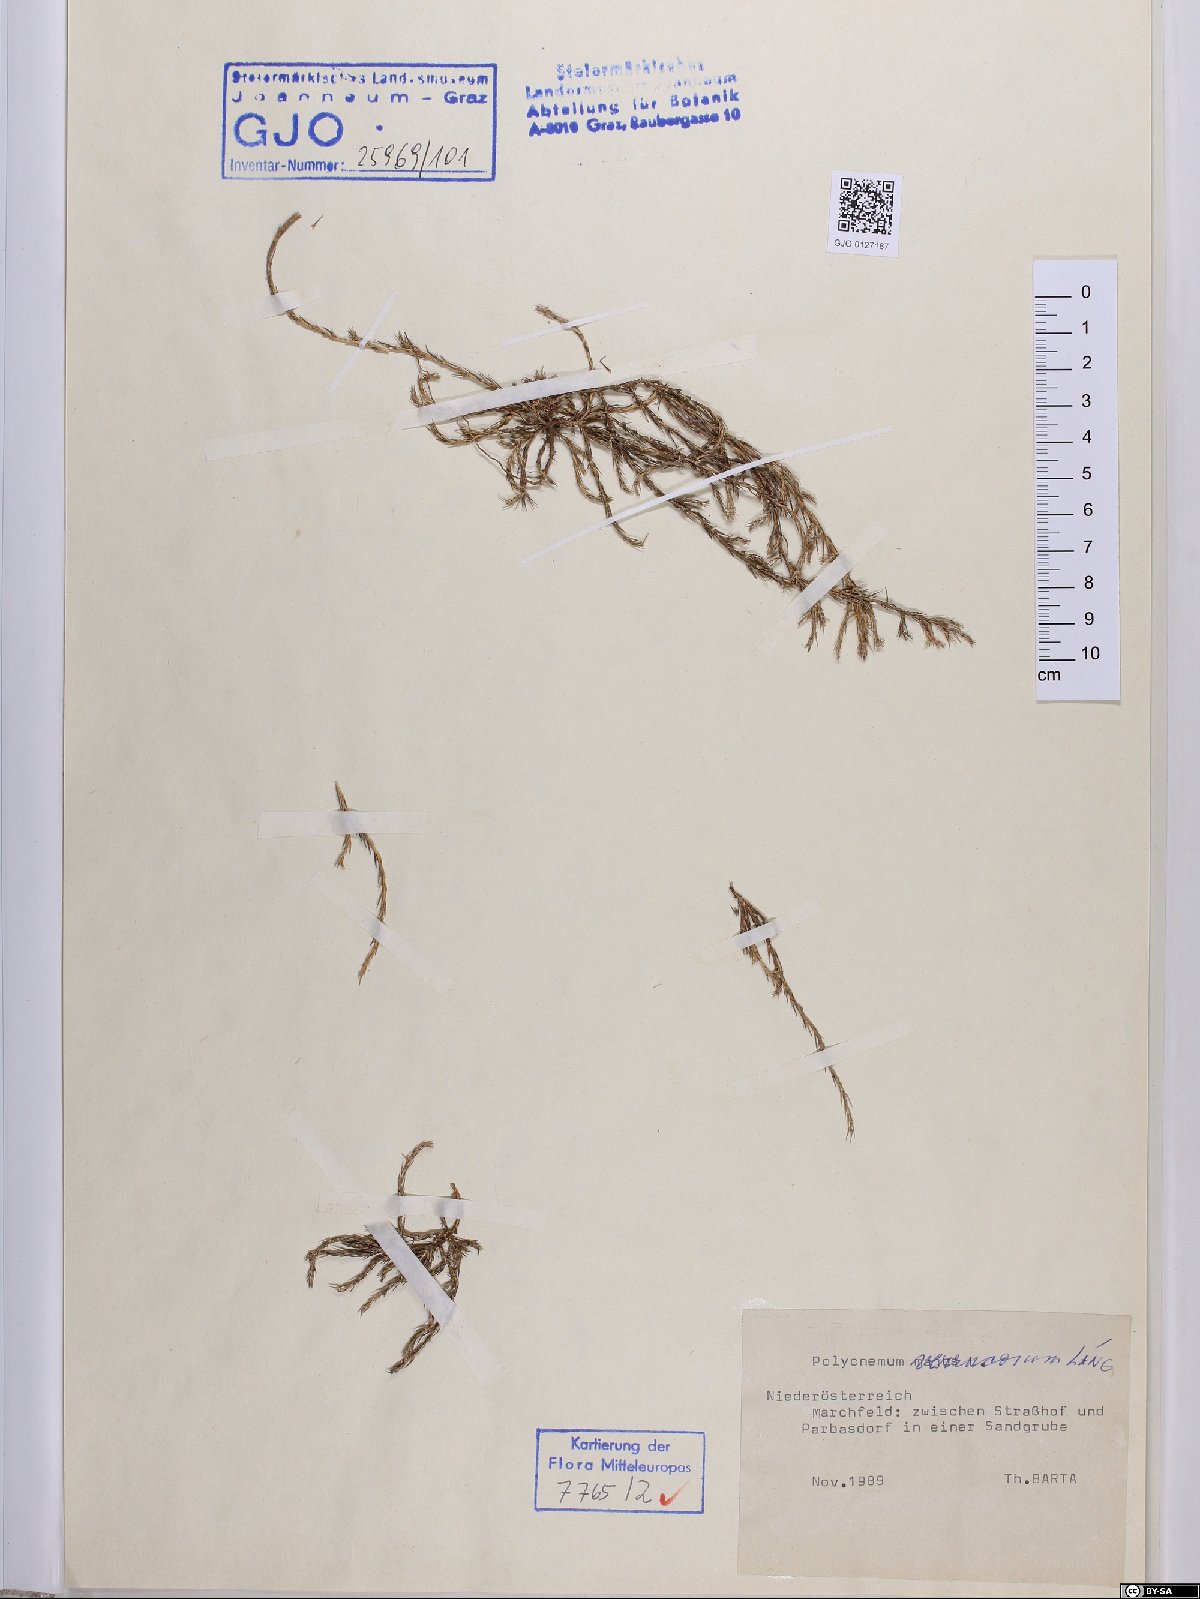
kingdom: Plantae
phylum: Tracheophyta
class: Magnoliopsida
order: Caryophyllales
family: Amaranthaceae
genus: Polycnemum
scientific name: Polycnemum verrucosum
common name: Warty needleleaf
